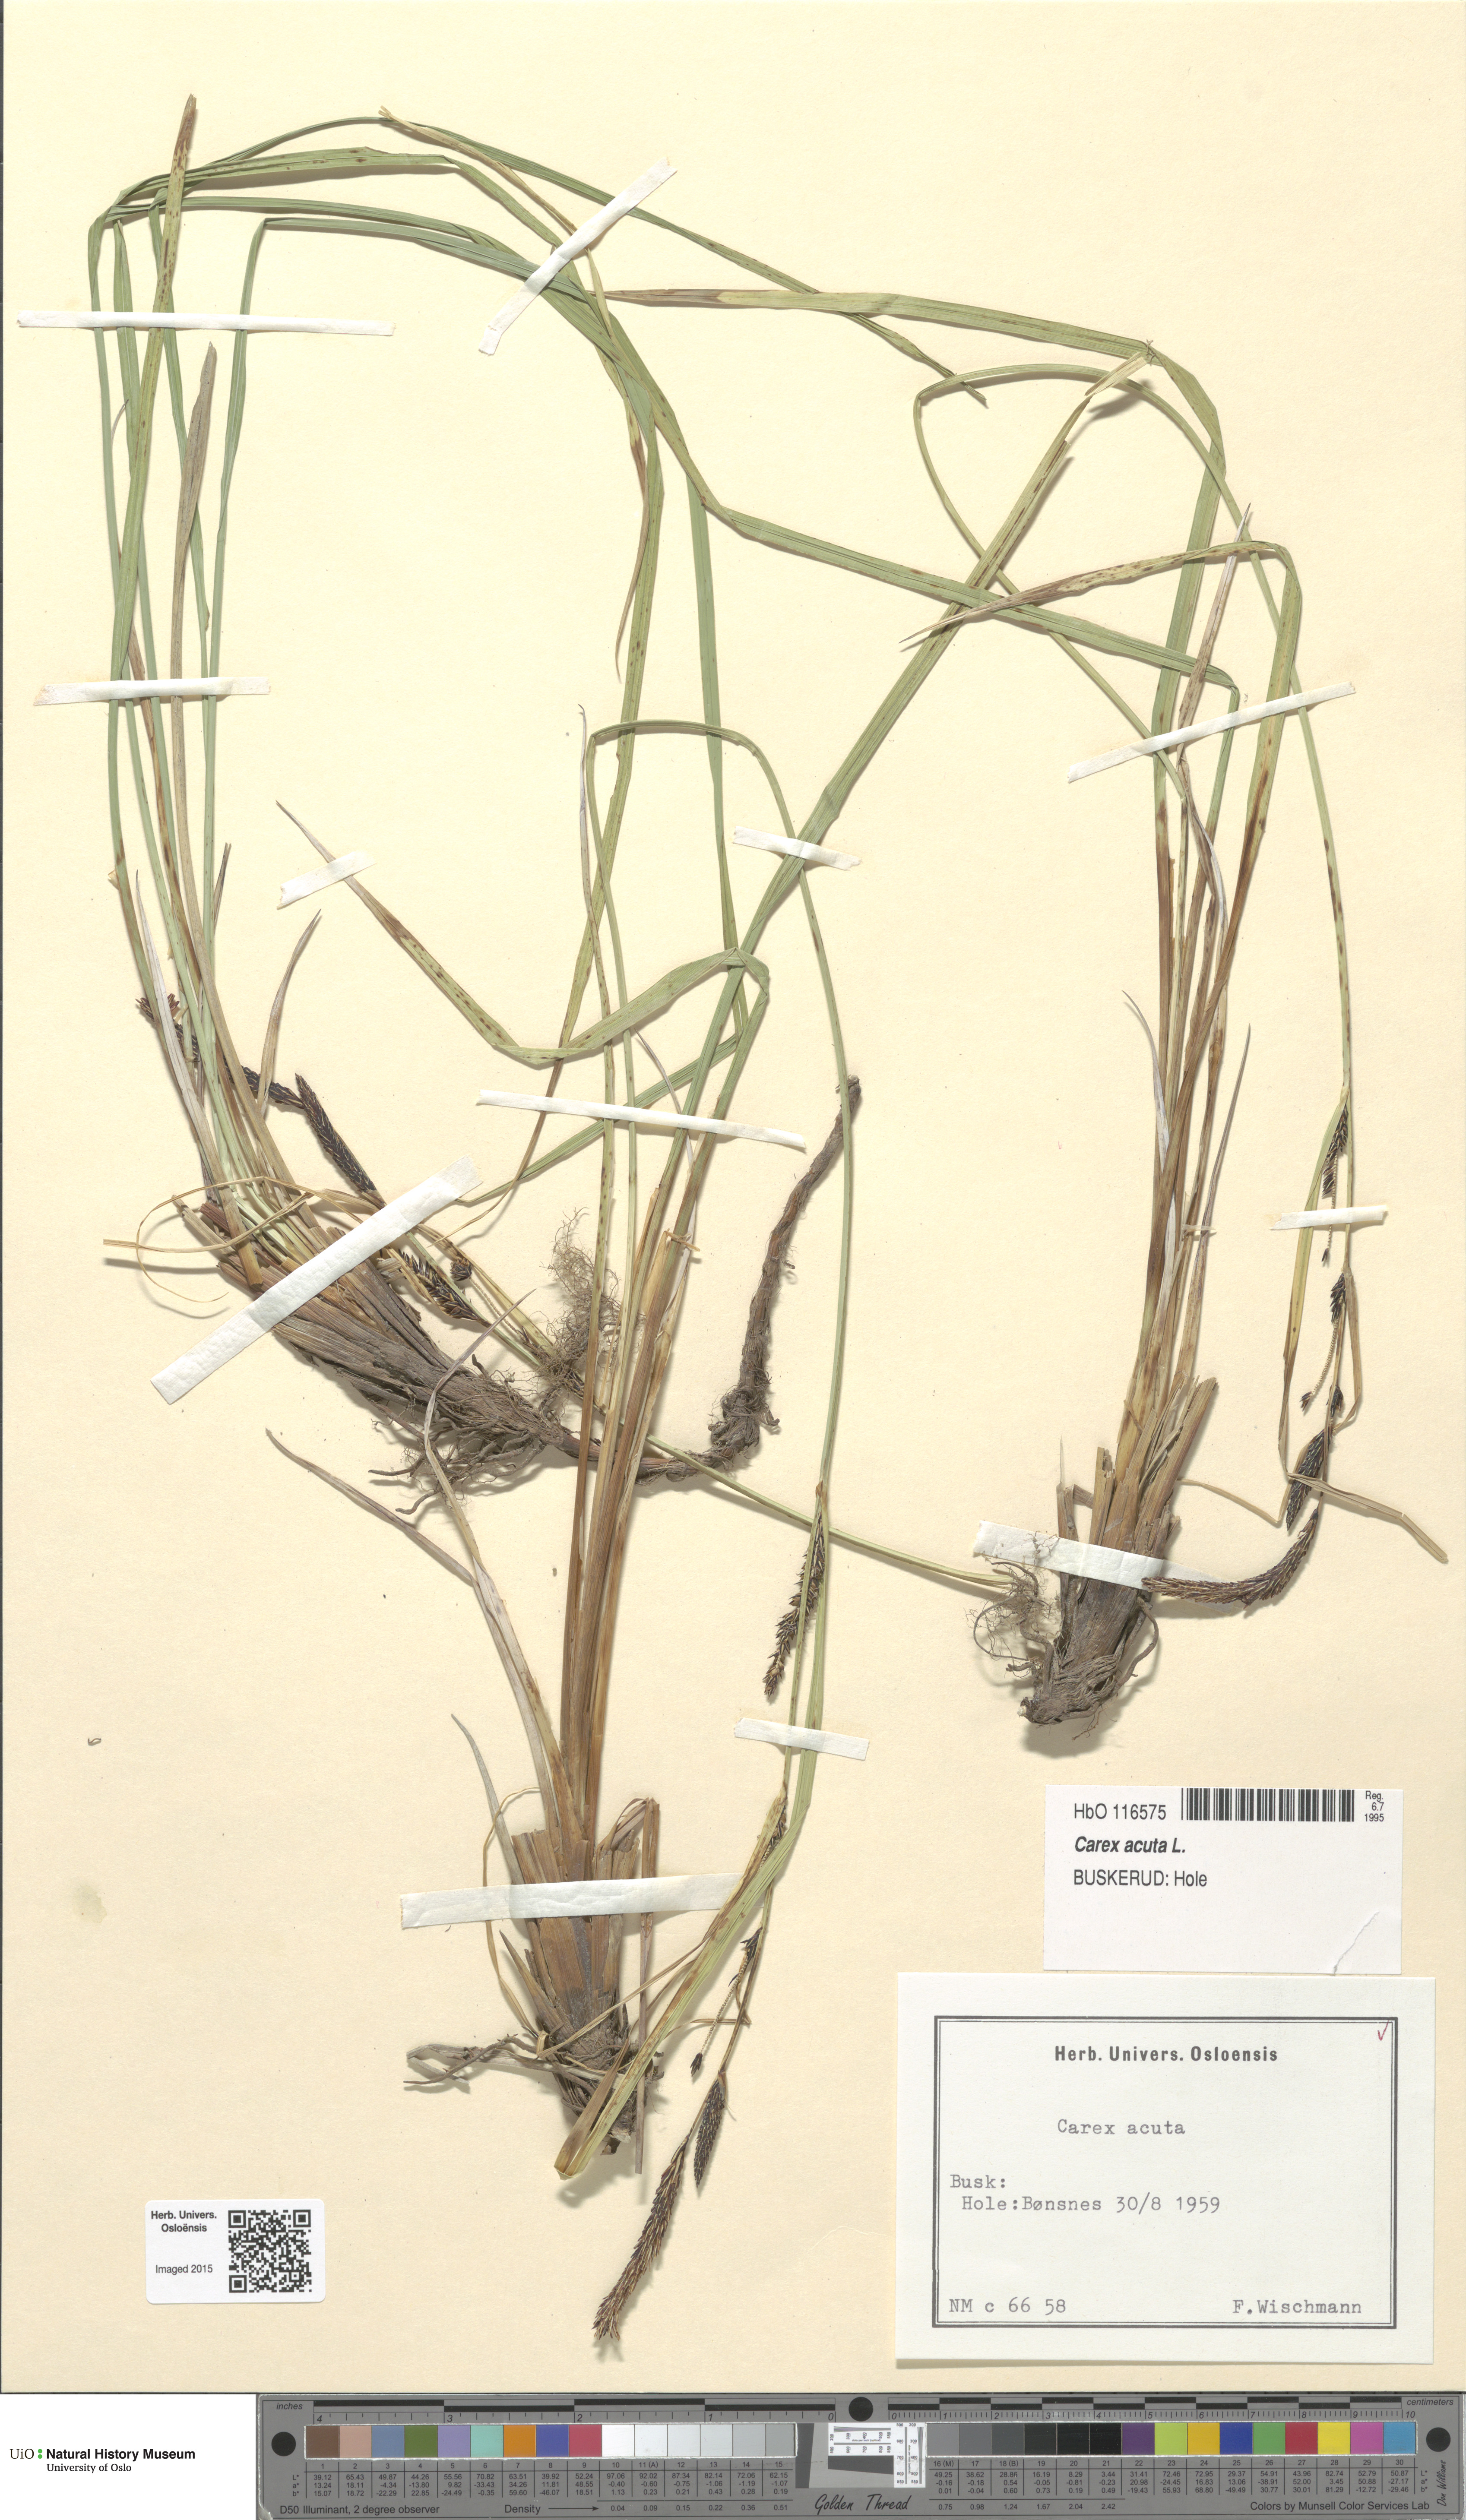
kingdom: Plantae
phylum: Tracheophyta
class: Liliopsida
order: Poales
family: Cyperaceae
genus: Carex
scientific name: Carex acuta
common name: Slender tufted-sedge
